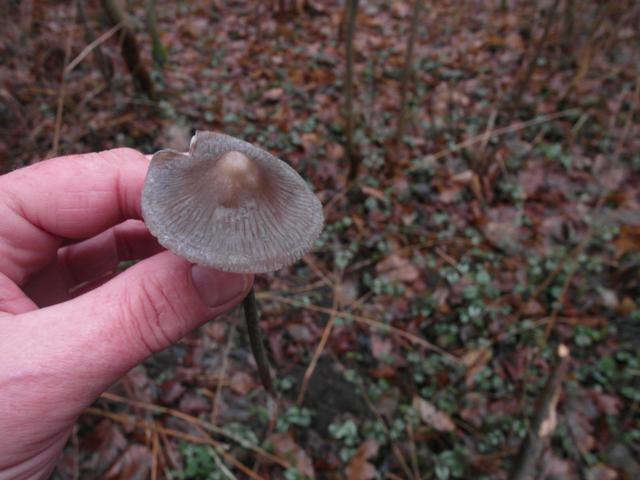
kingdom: Fungi
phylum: Basidiomycota
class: Agaricomycetes
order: Agaricales
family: Mycenaceae
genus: Mycena
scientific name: Mycena polygramma
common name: mangestribet huesvamp
